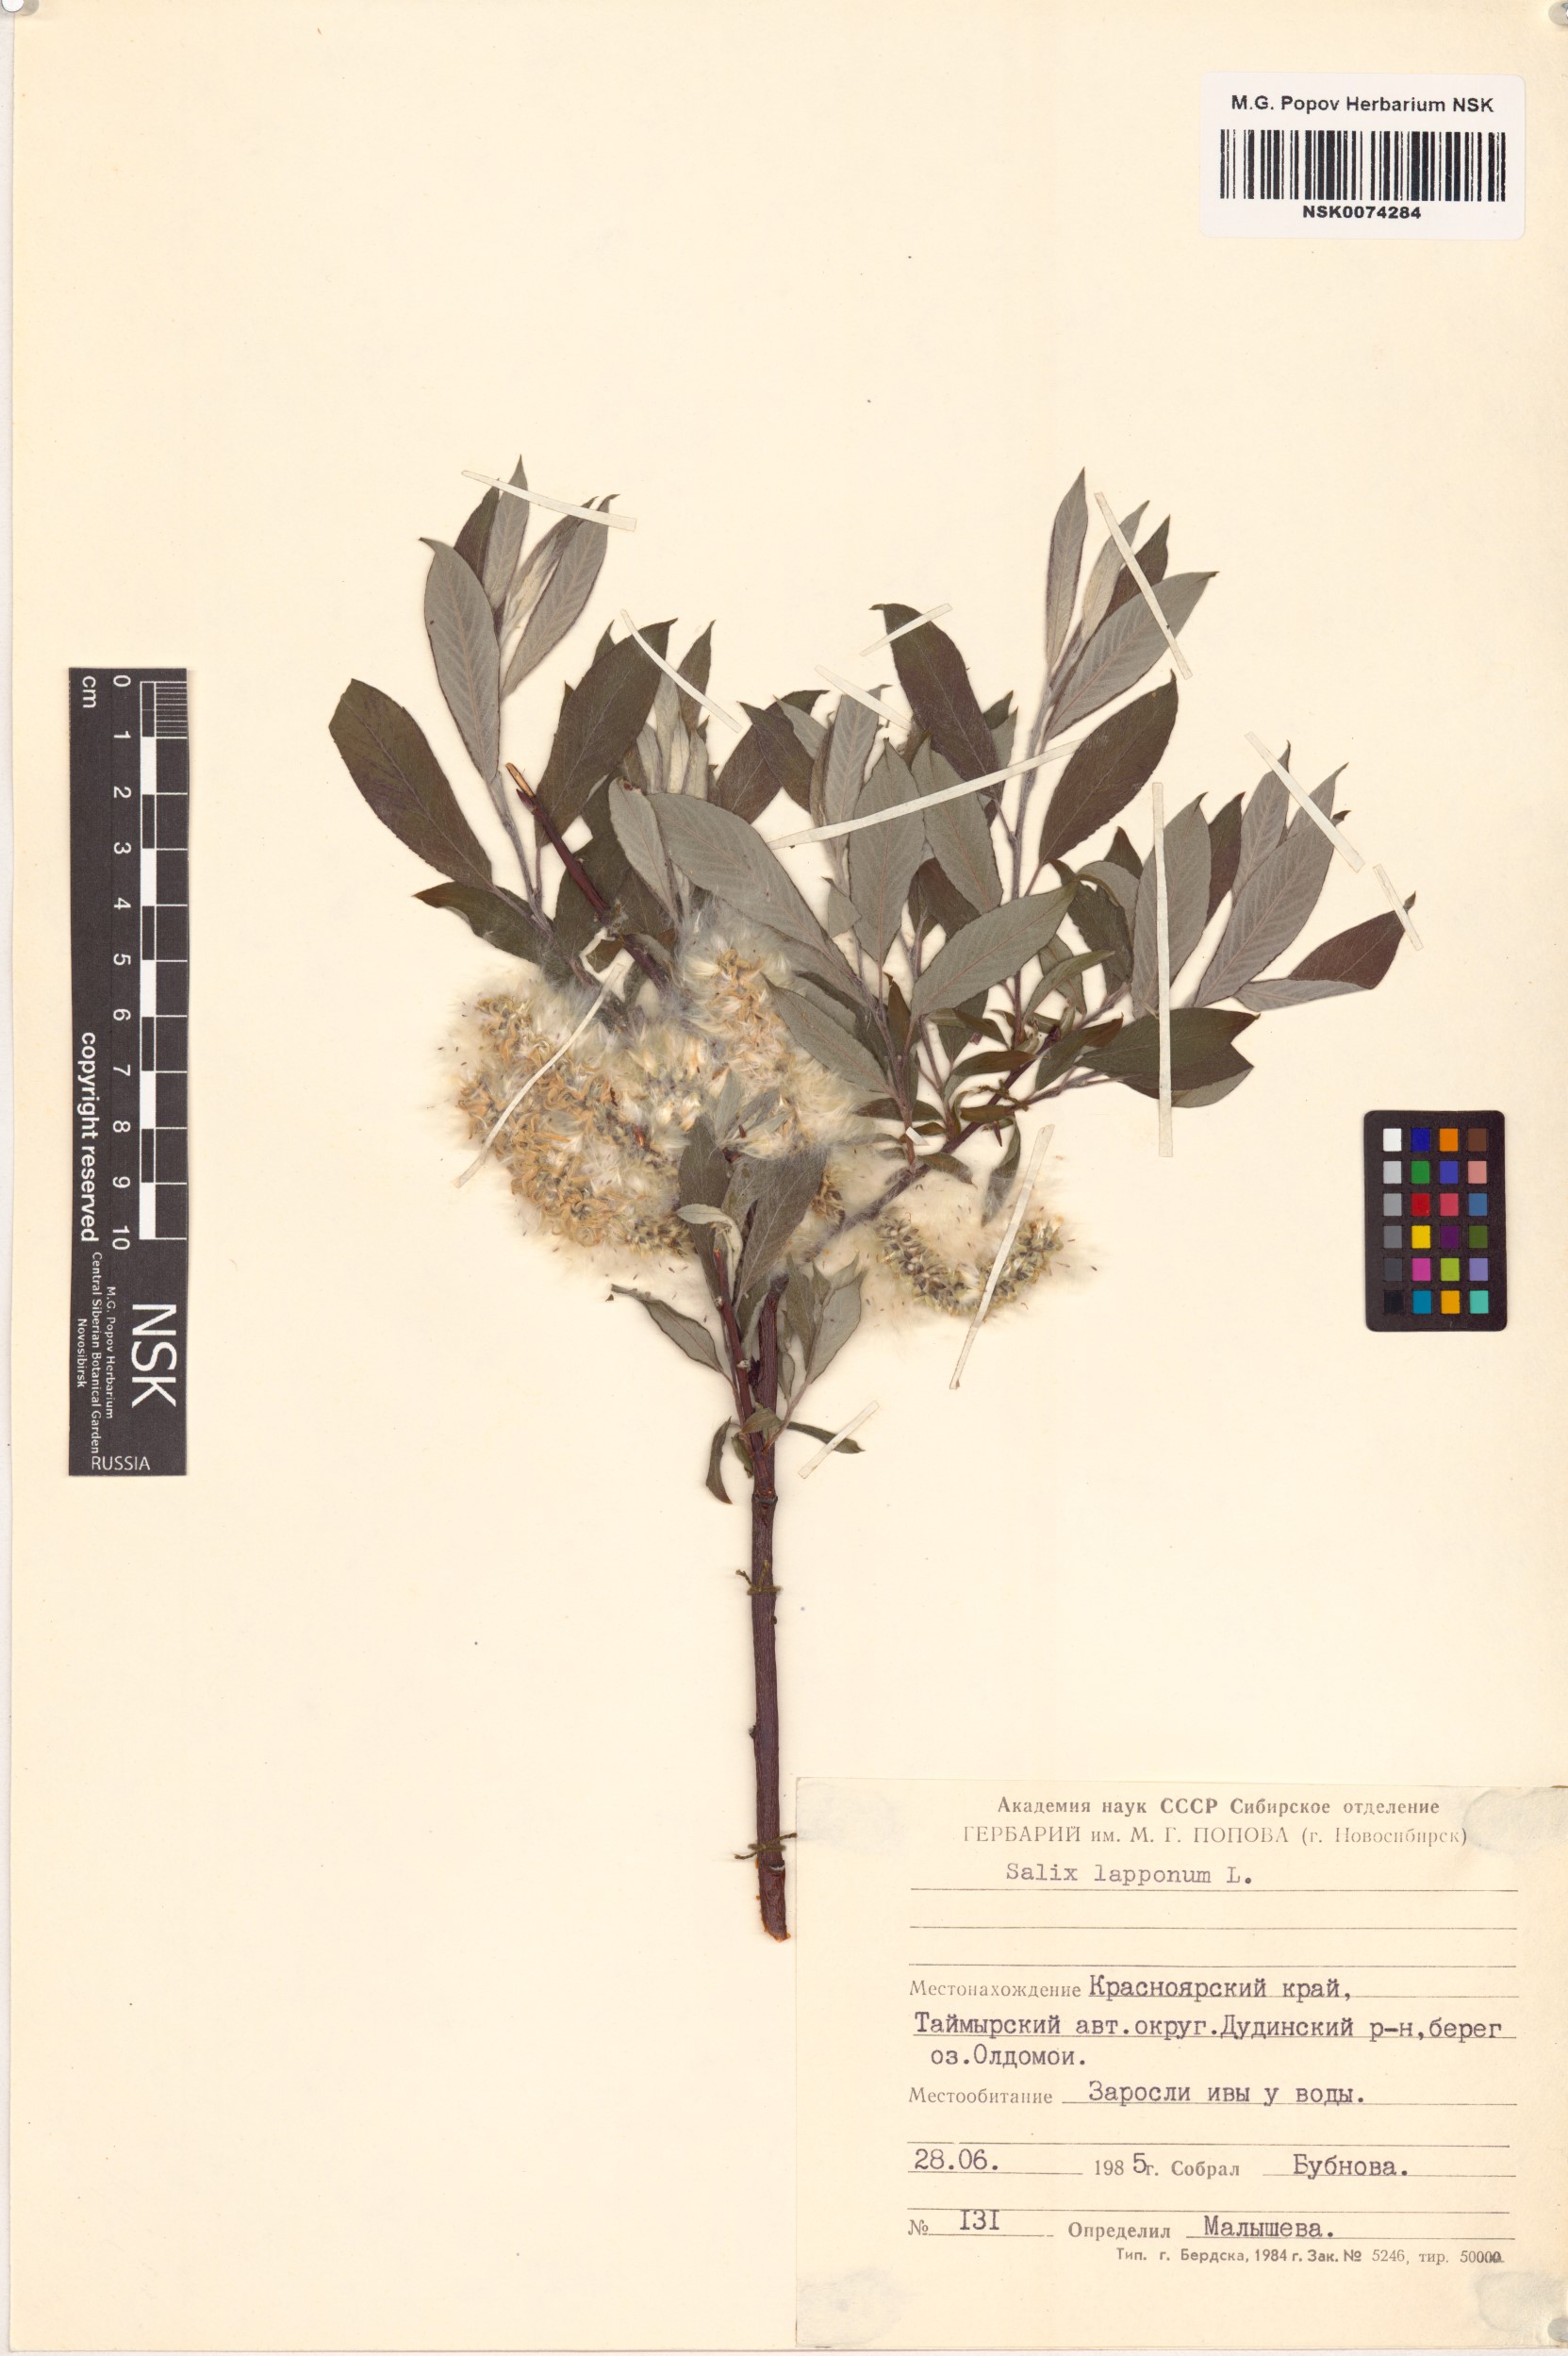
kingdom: Plantae
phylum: Tracheophyta
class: Magnoliopsida
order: Malpighiales
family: Salicaceae
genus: Salix
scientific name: Salix lapponum
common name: Downy willow
